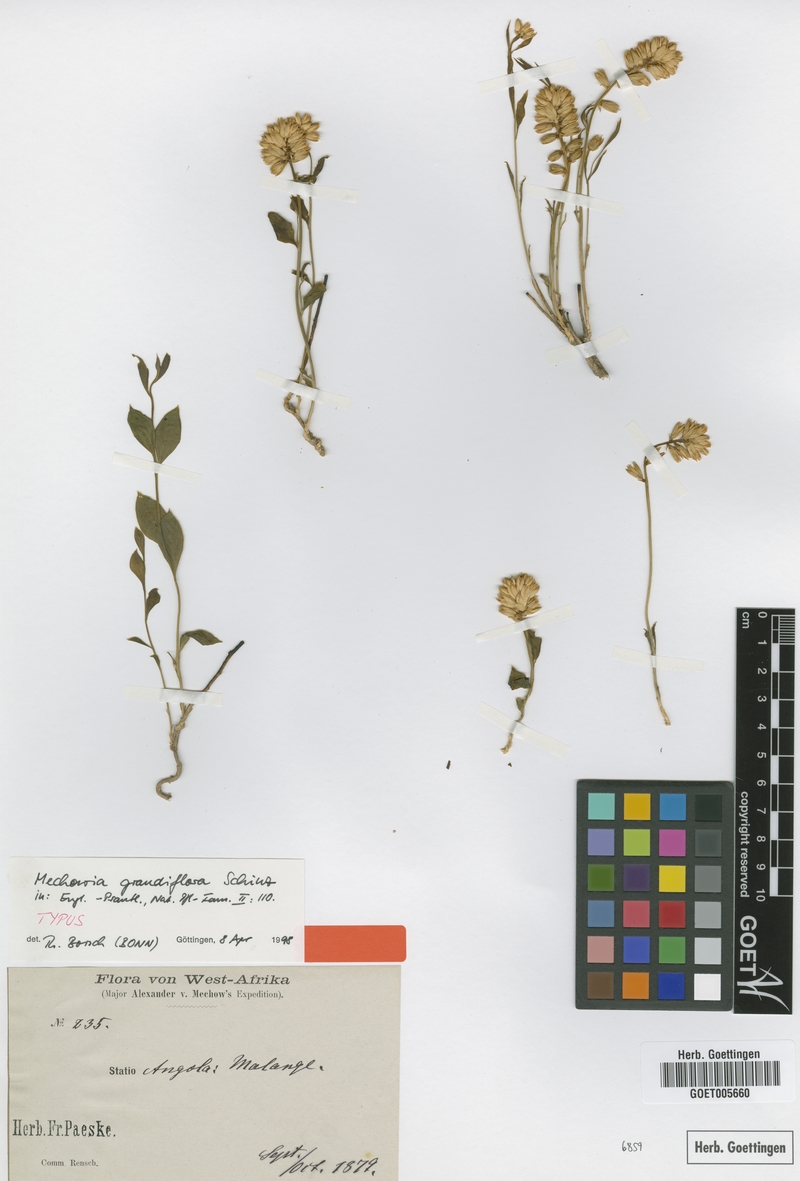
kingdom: Plantae
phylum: Tracheophyta
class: Magnoliopsida
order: Caryophyllales
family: Amaranthaceae
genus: Mechowia
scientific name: Mechowia grandiflora
